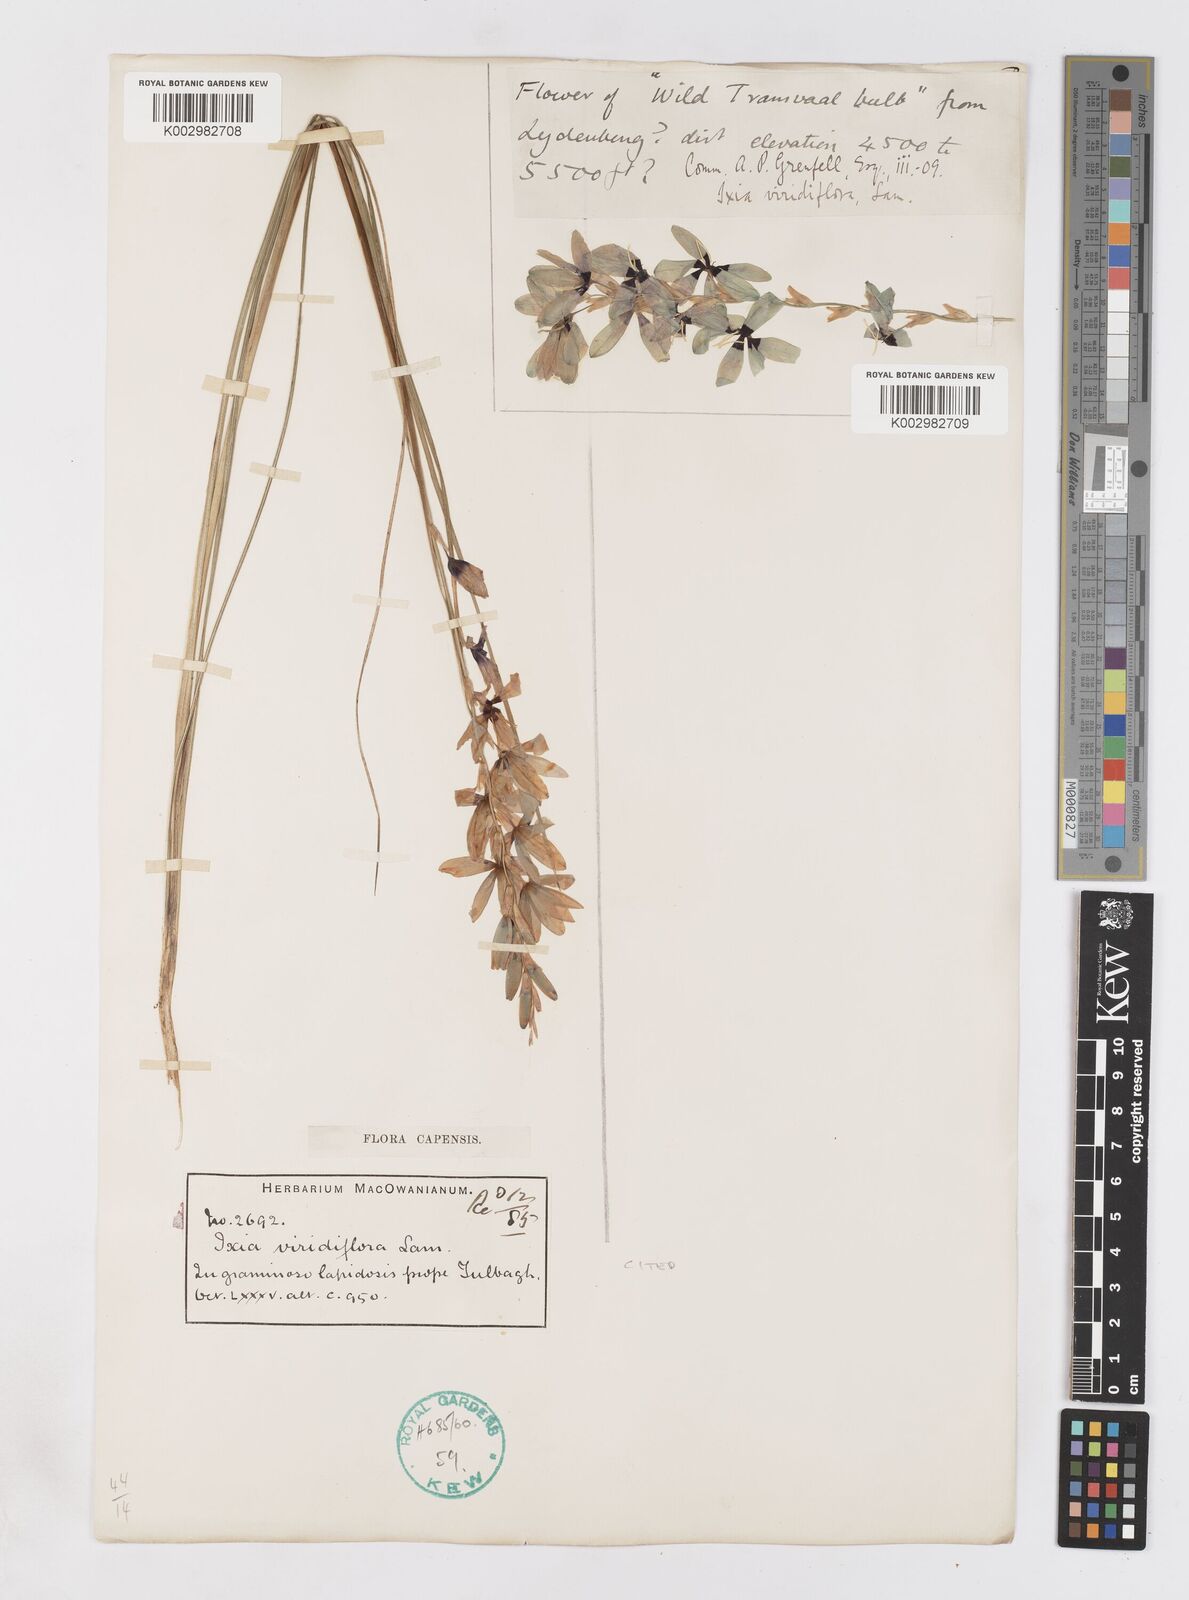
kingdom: Plantae
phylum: Tracheophyta
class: Liliopsida
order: Asparagales
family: Iridaceae
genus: Ixia
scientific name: Ixia viridiflora
